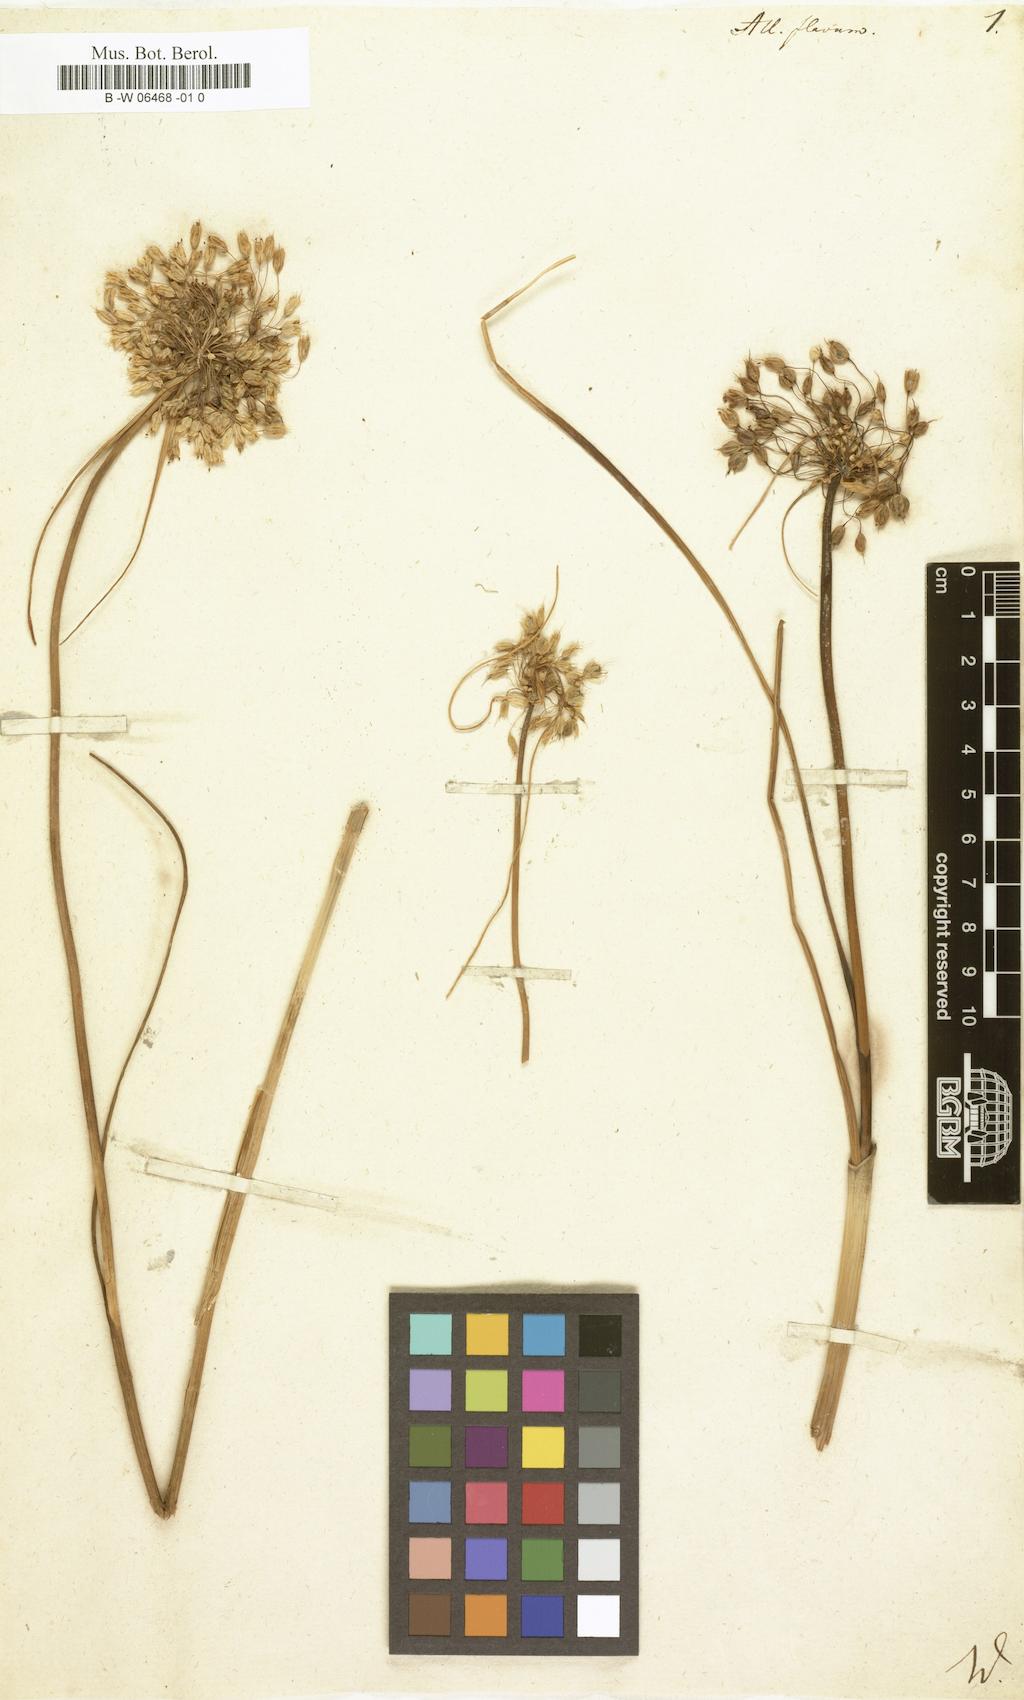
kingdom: Plantae
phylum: Tracheophyta
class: Liliopsida
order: Asparagales
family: Amaryllidaceae
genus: Allium
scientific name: Allium flavum
